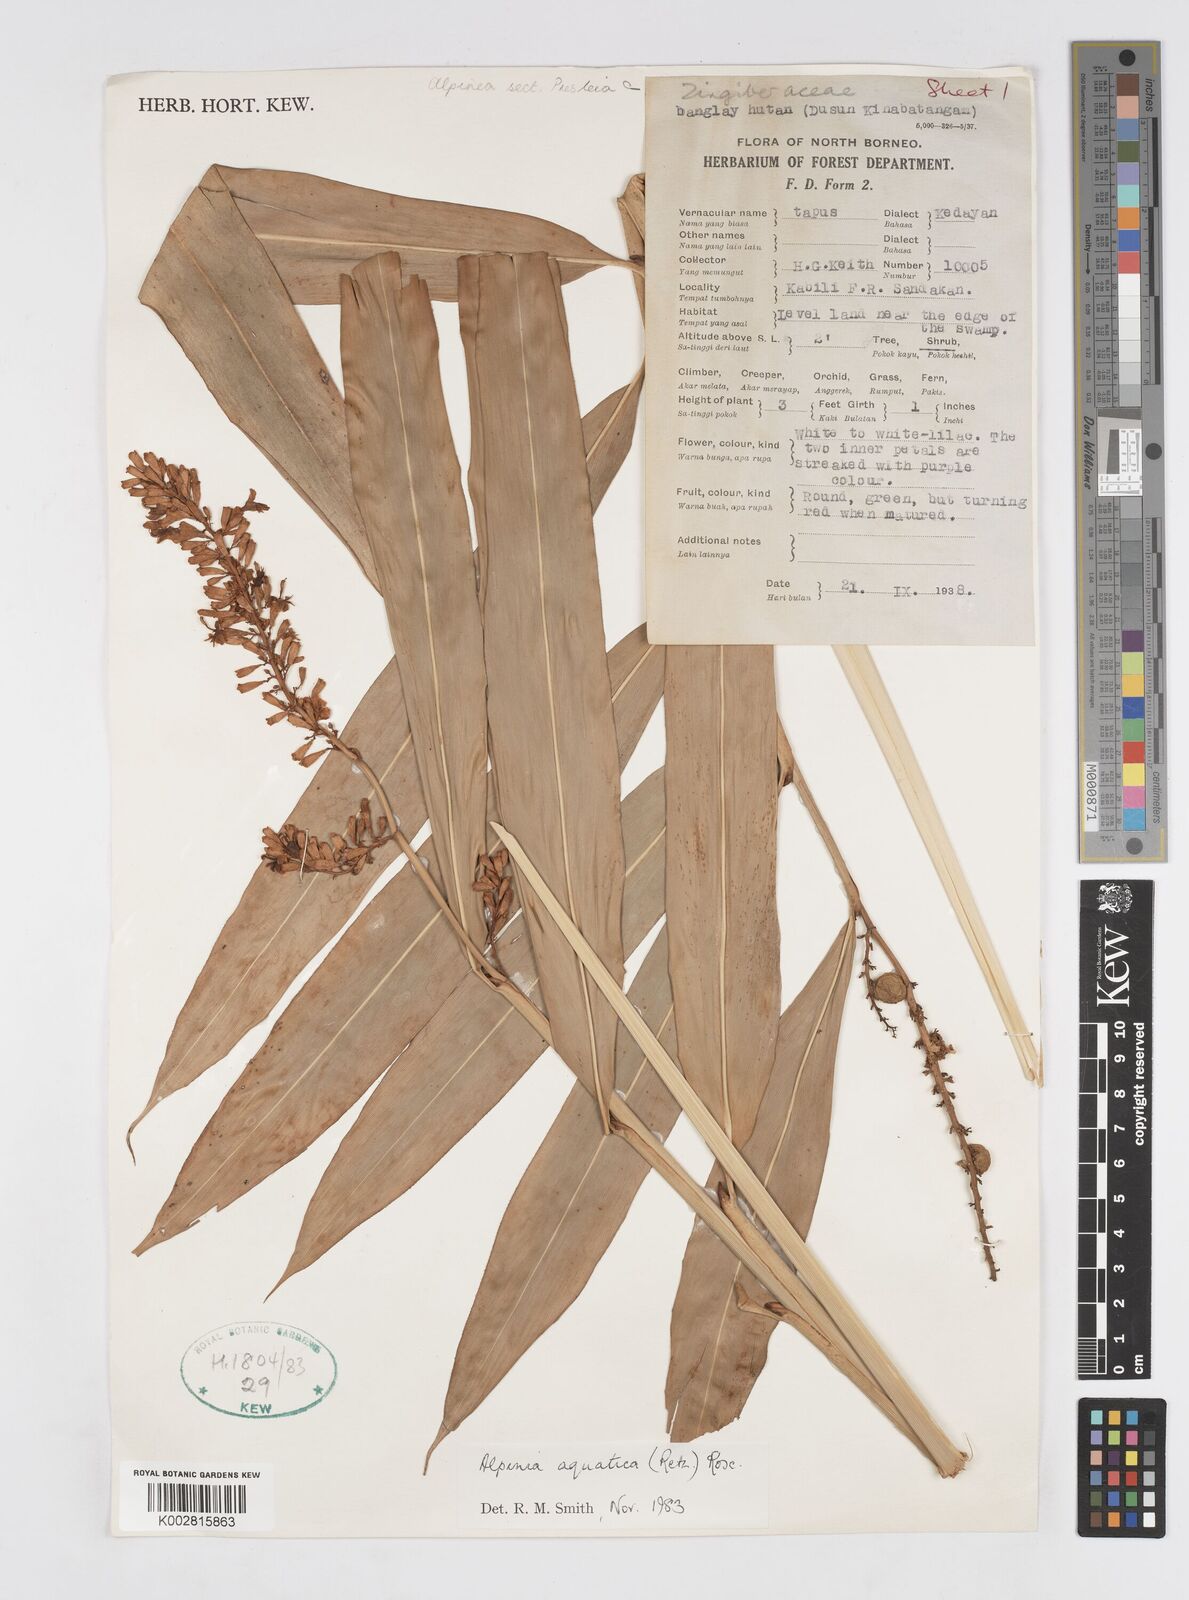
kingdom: Plantae
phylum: Tracheophyta
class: Liliopsida
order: Zingiberales
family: Zingiberaceae
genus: Alpinia
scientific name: Alpinia aquatica
